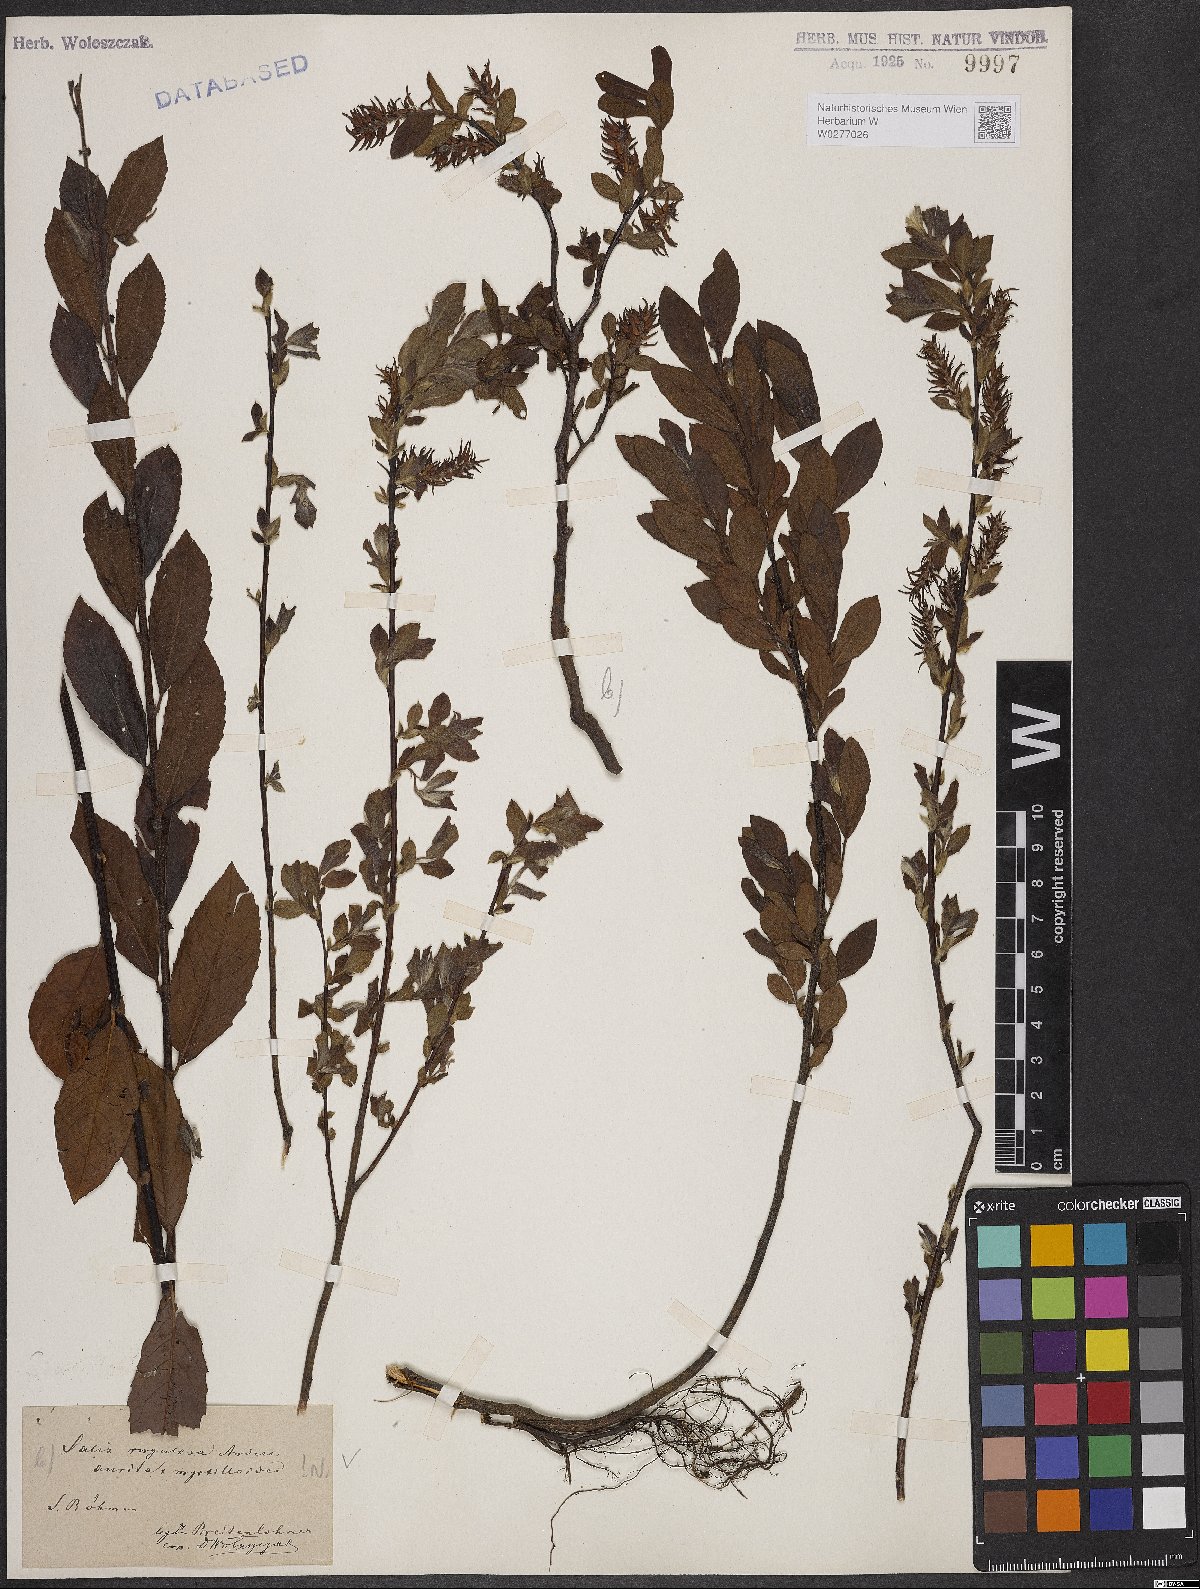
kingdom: Plantae
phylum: Tracheophyta
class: Magnoliopsida
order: Malpighiales
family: Salicaceae
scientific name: Salicaceae
